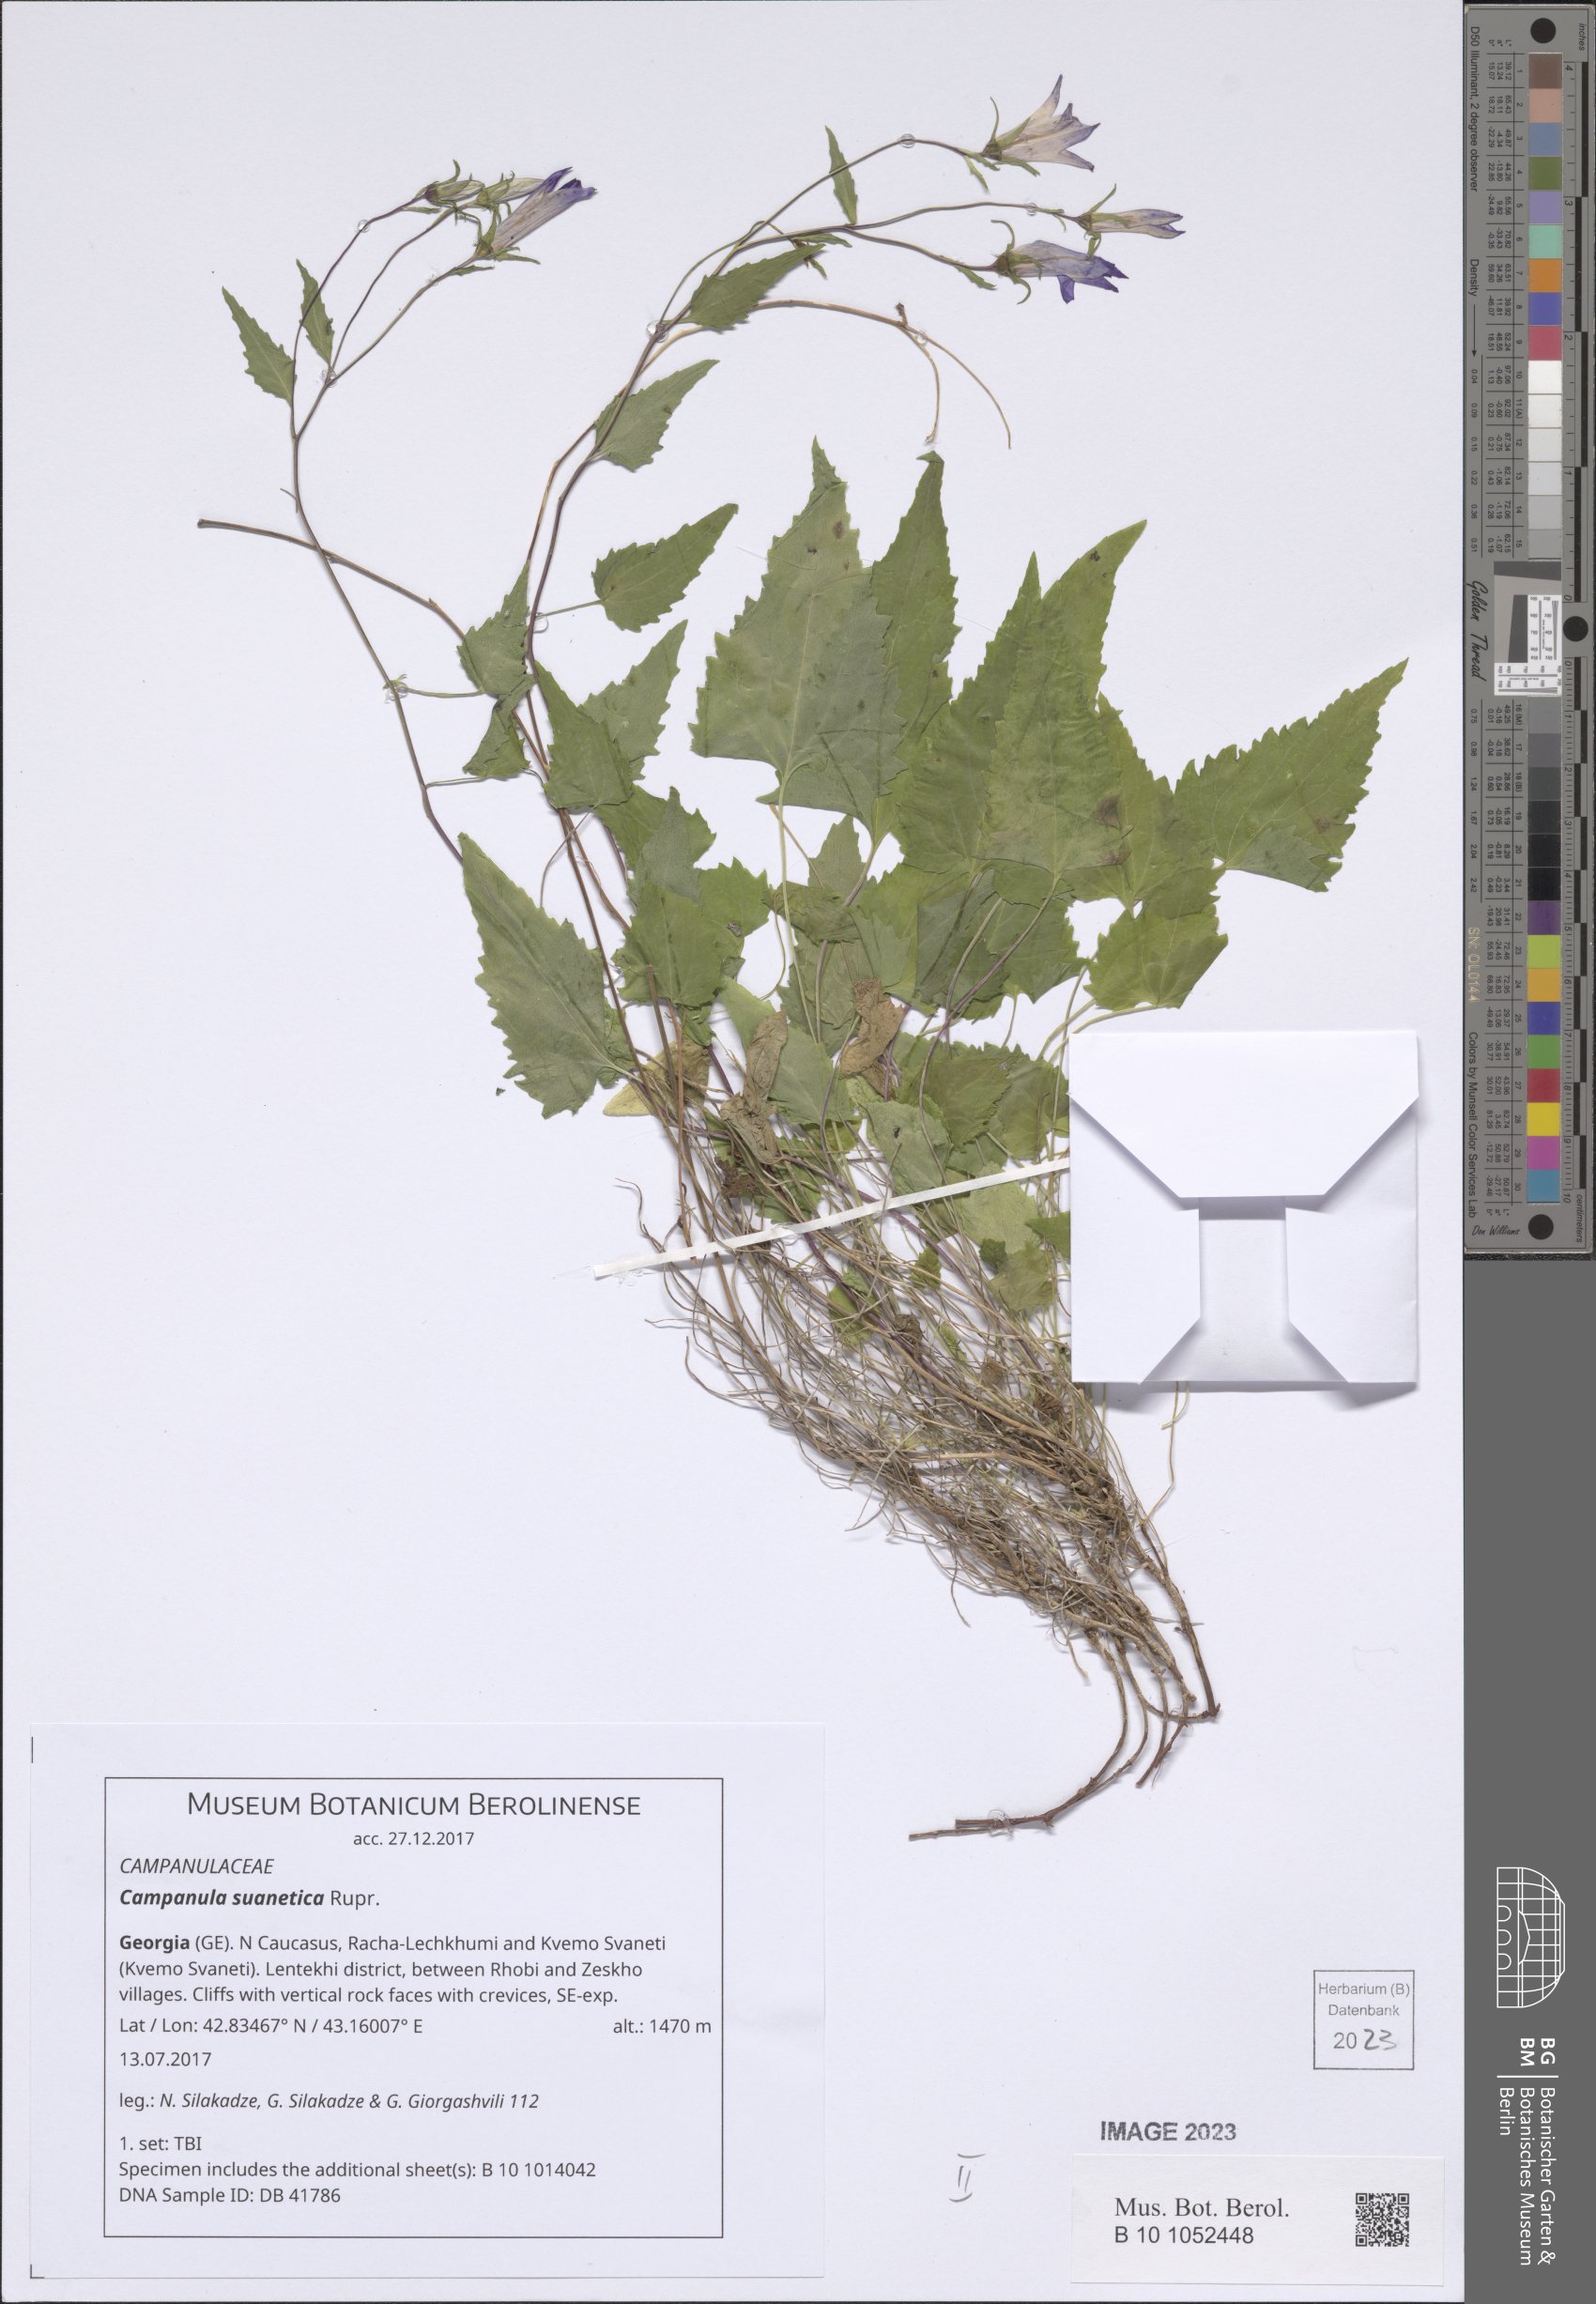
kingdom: Plantae
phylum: Tracheophyta
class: Magnoliopsida
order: Asterales
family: Campanulaceae
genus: Campanula
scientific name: Campanula suanetica
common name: Svanetian bellflower
